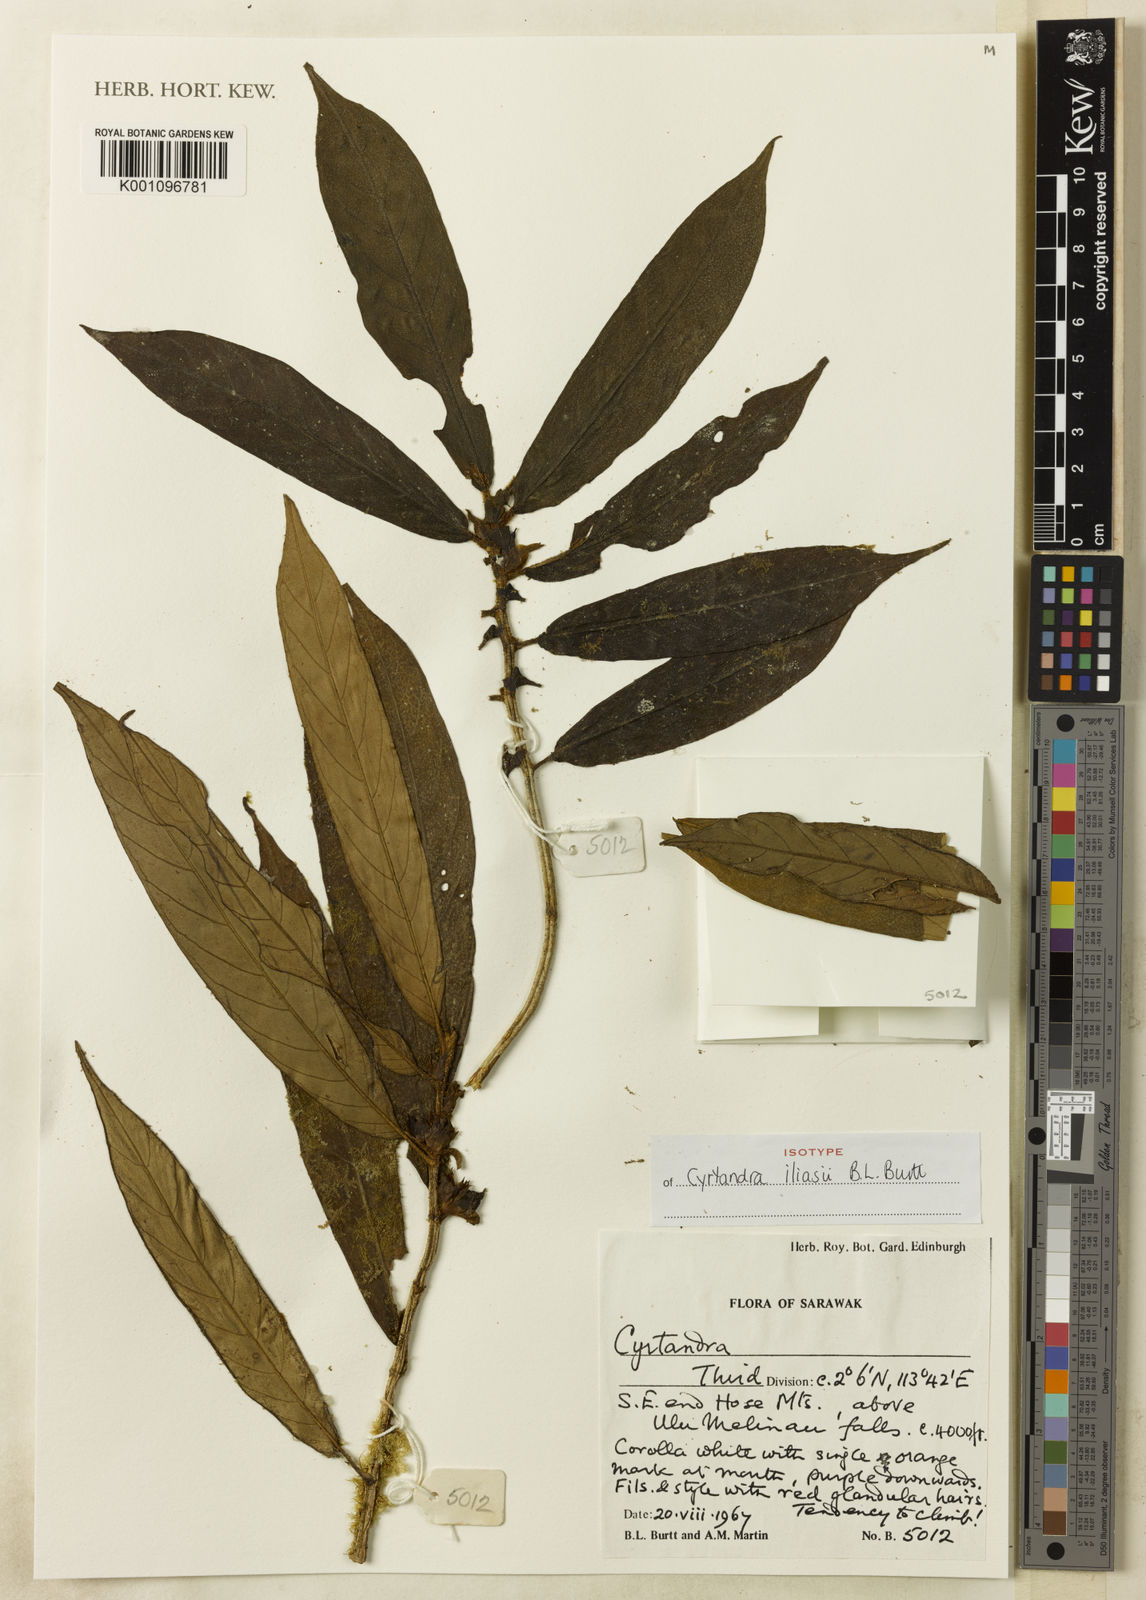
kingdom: Plantae
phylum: Tracheophyta
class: Magnoliopsida
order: Lamiales
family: Gesneriaceae
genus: Cyrtandra
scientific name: Cyrtandra iliasii
